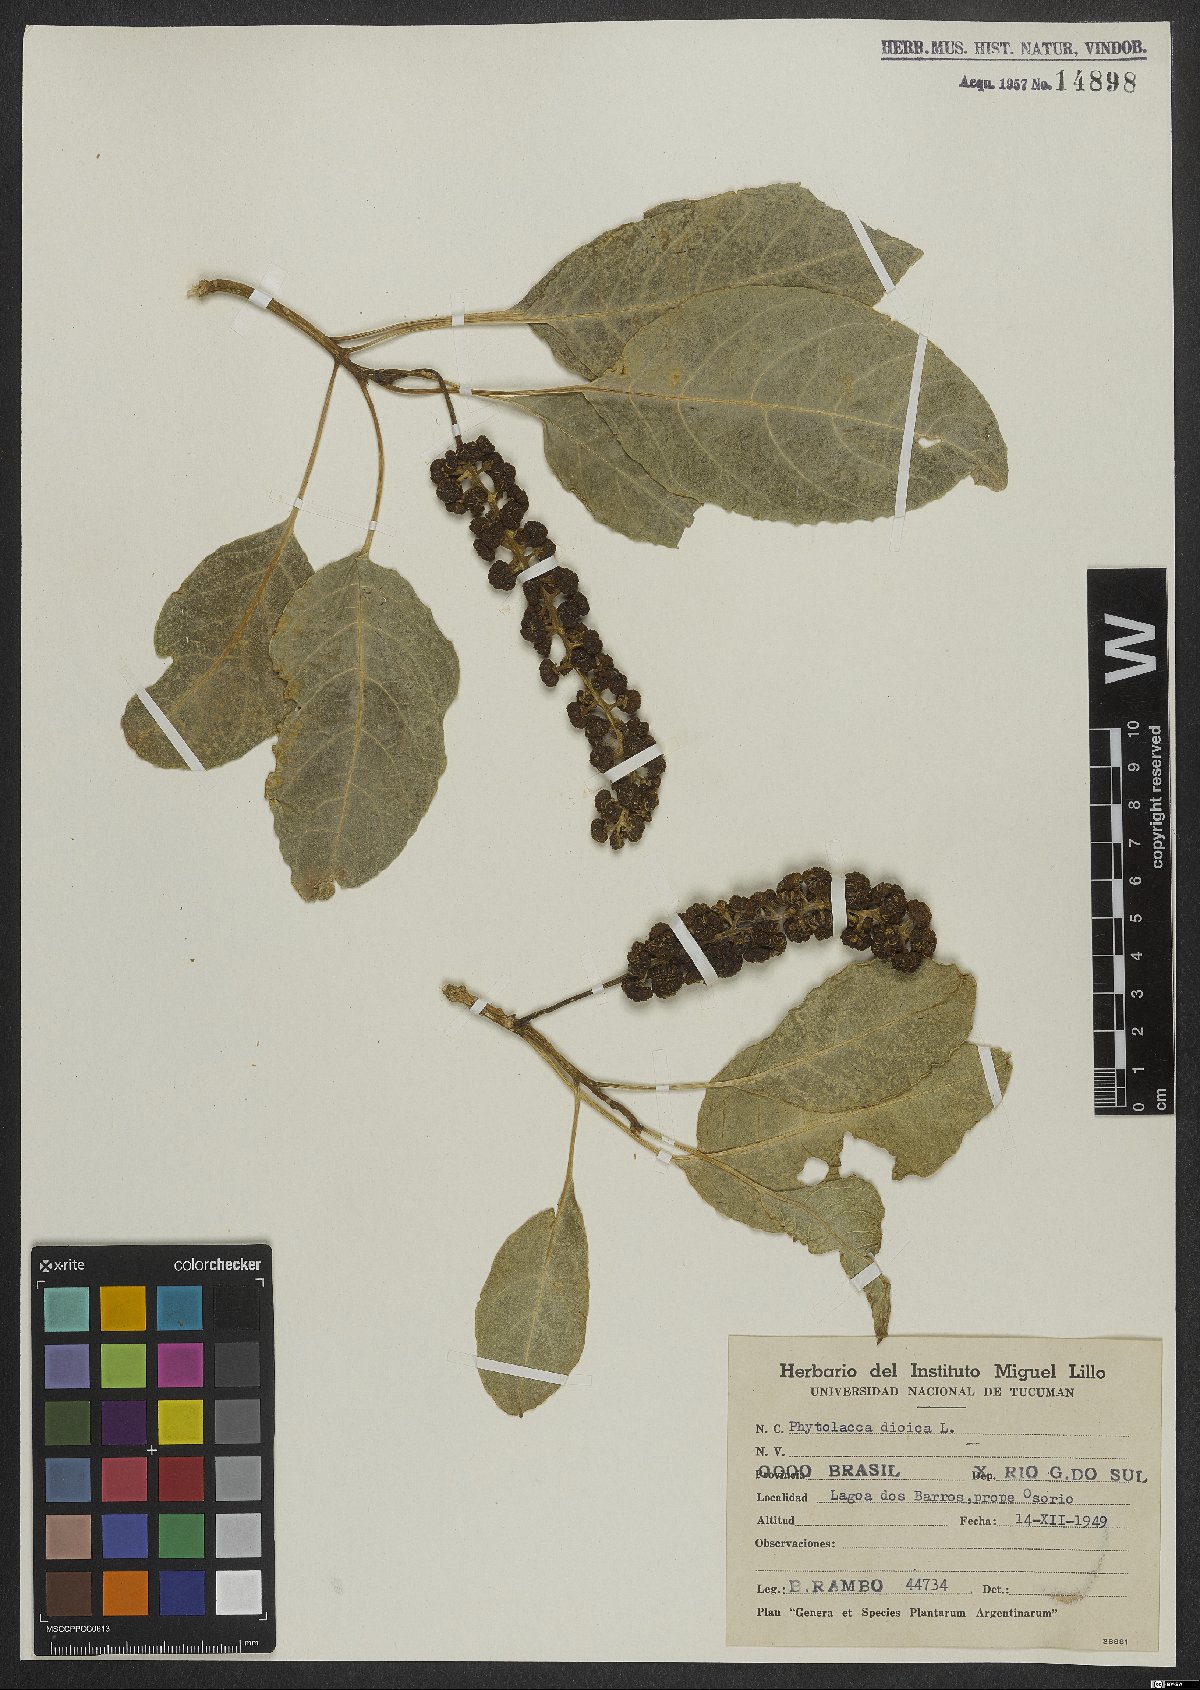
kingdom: Plantae
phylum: Tracheophyta
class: Magnoliopsida
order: Caryophyllales
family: Phytolaccaceae
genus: Phytolacca
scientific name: Phytolacca dioica
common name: Pokeweed
